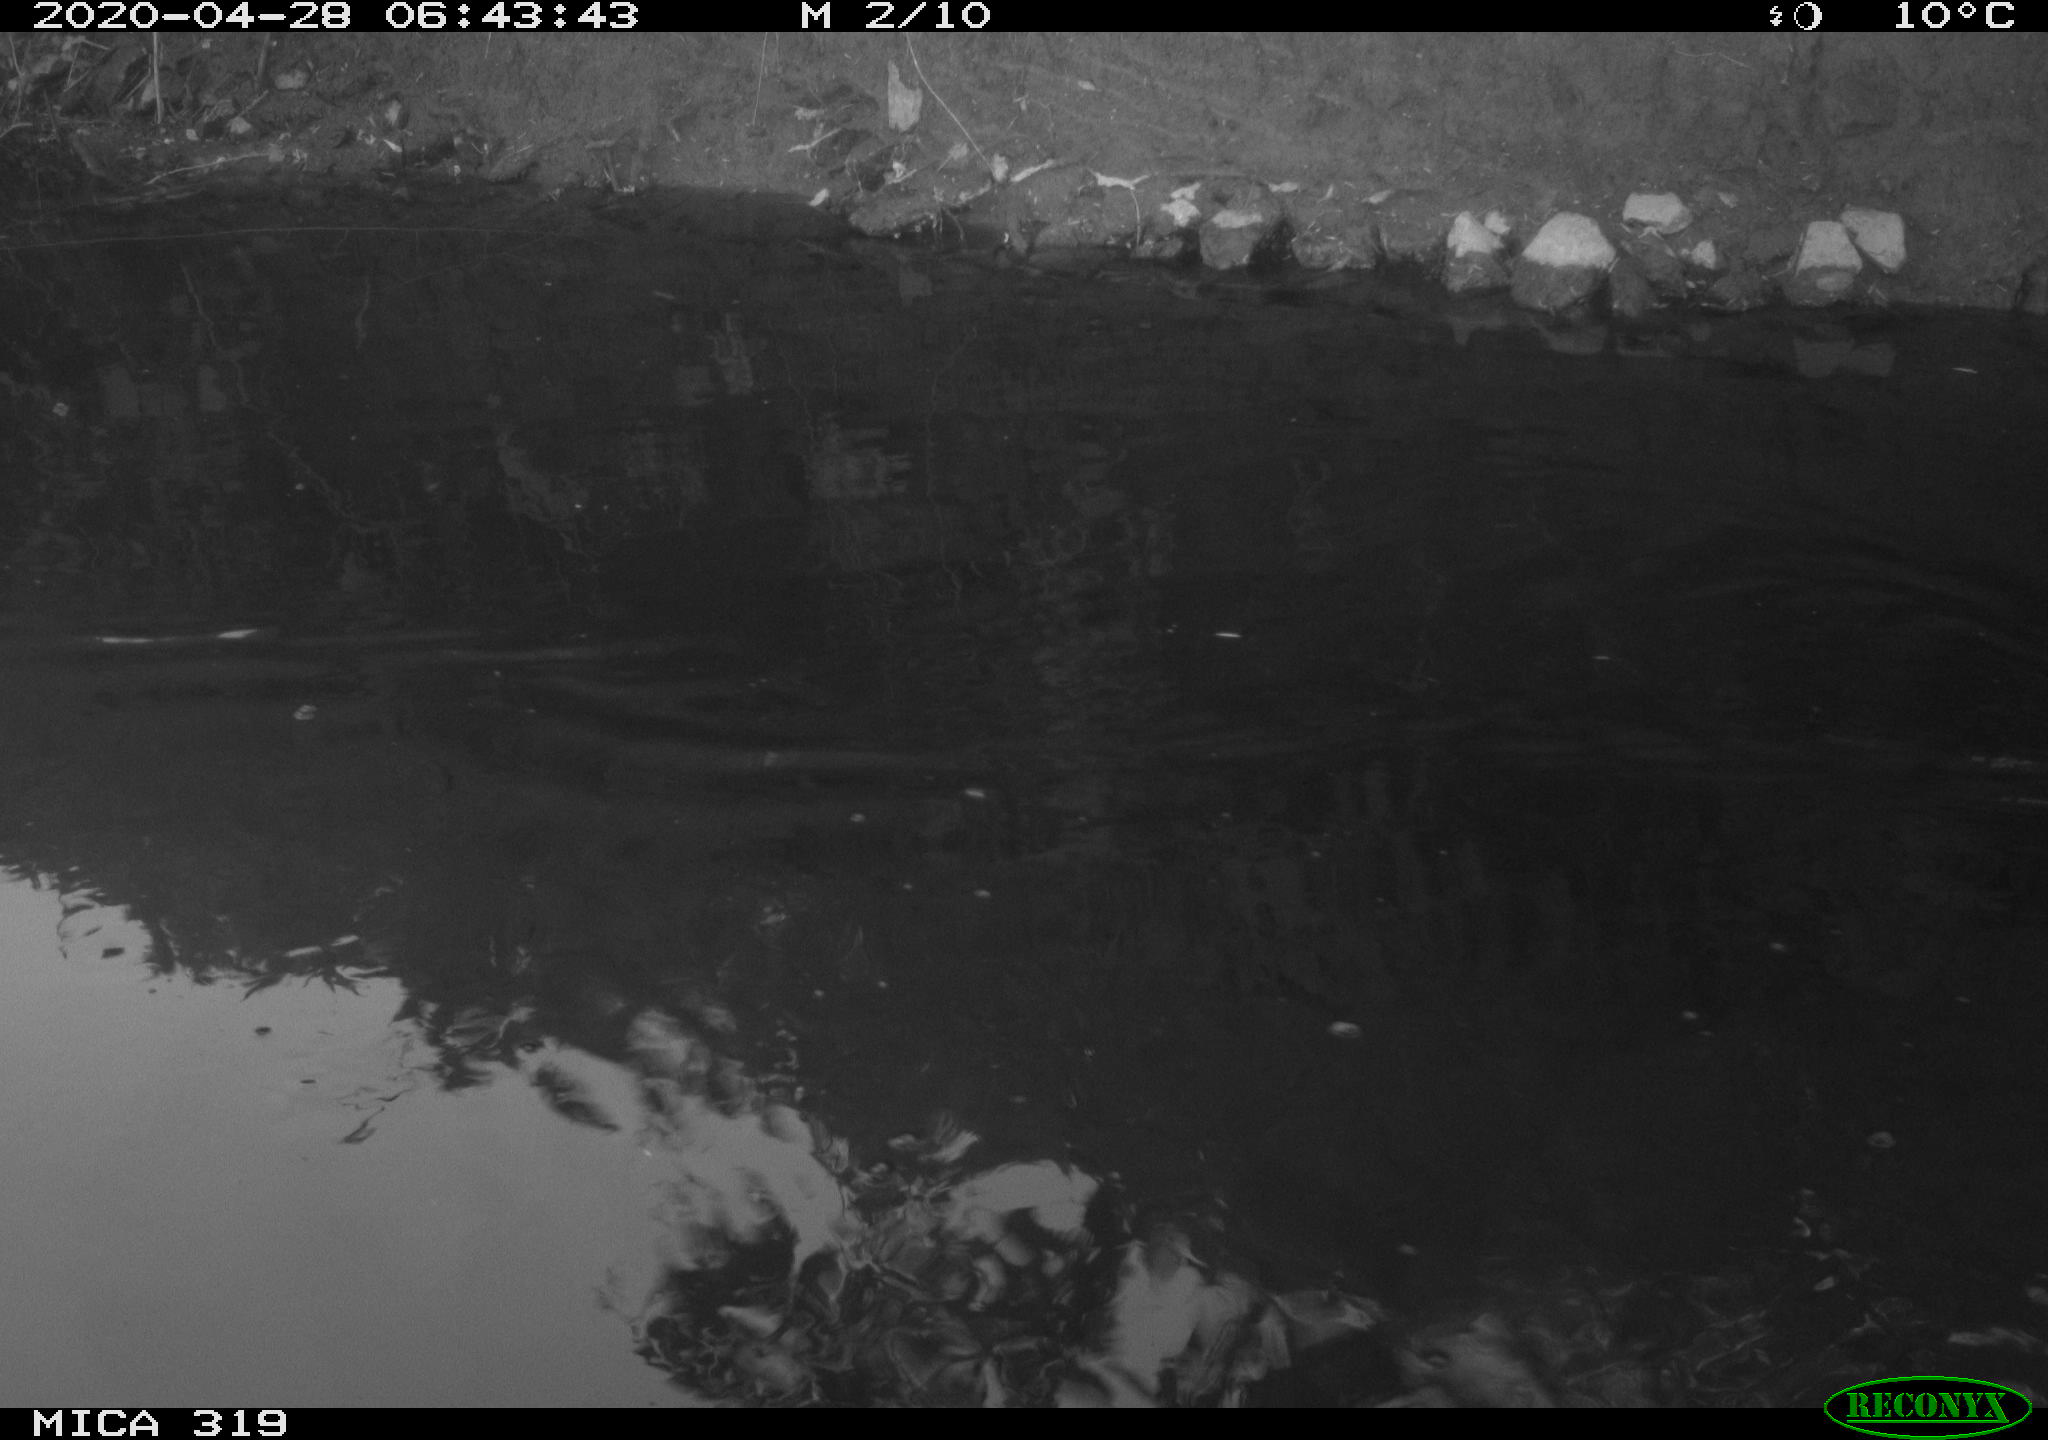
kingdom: Animalia
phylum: Chordata
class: Aves
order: Anseriformes
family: Anatidae
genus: Anas
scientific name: Anas platyrhynchos
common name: Mallard
